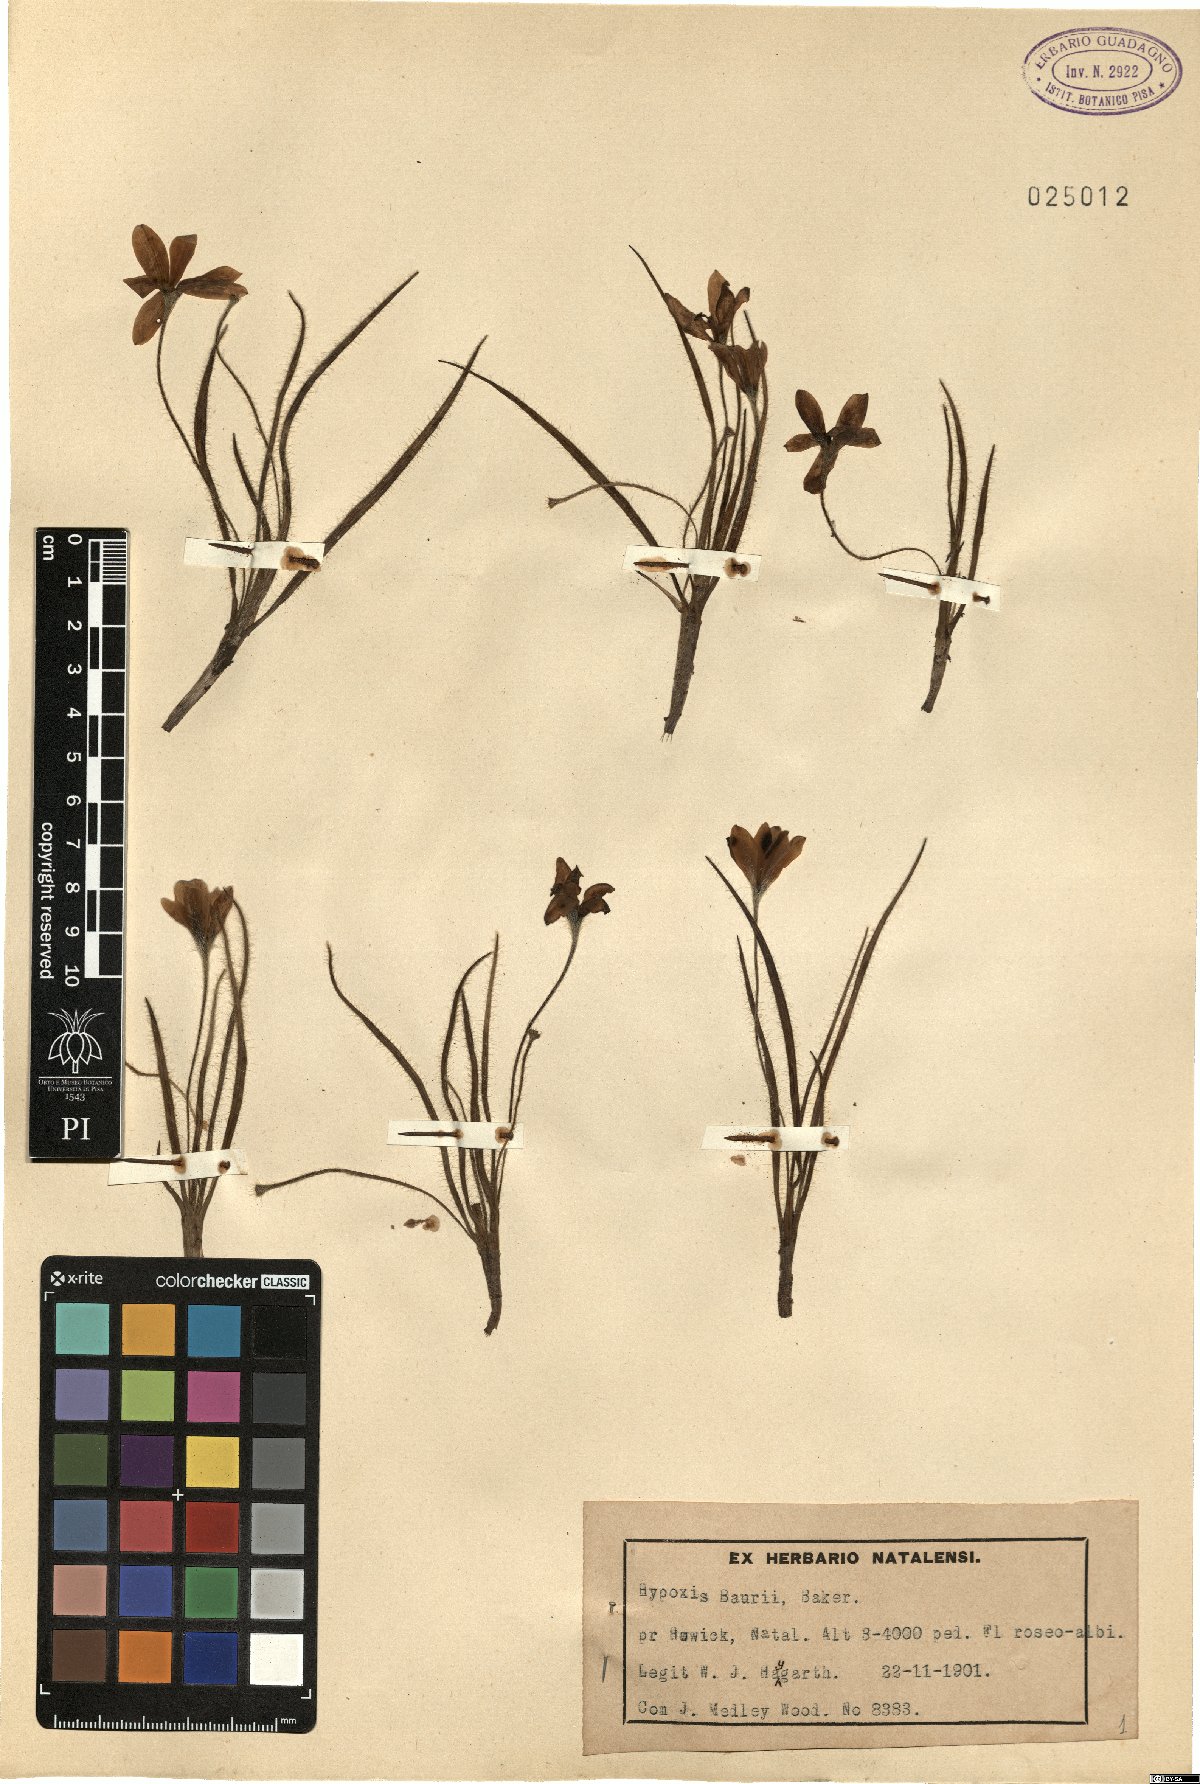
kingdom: Plantae
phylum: Tracheophyta
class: Liliopsida
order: Asparagales
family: Hypoxidaceae
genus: Hypoxis
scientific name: Hypoxis baurii
